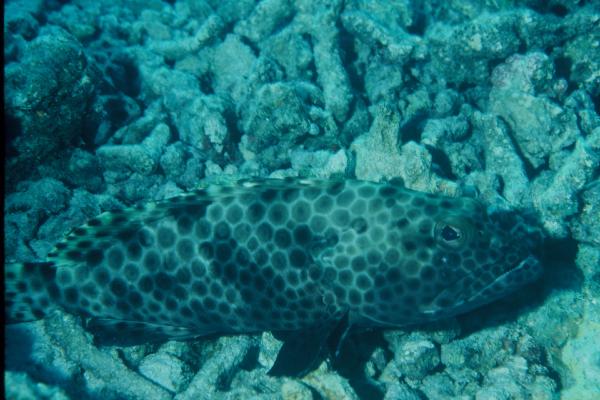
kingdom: Animalia
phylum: Chordata
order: Perciformes
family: Serranidae
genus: Epinephelus
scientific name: Epinephelus macrospilos
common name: Snubnose grouper
